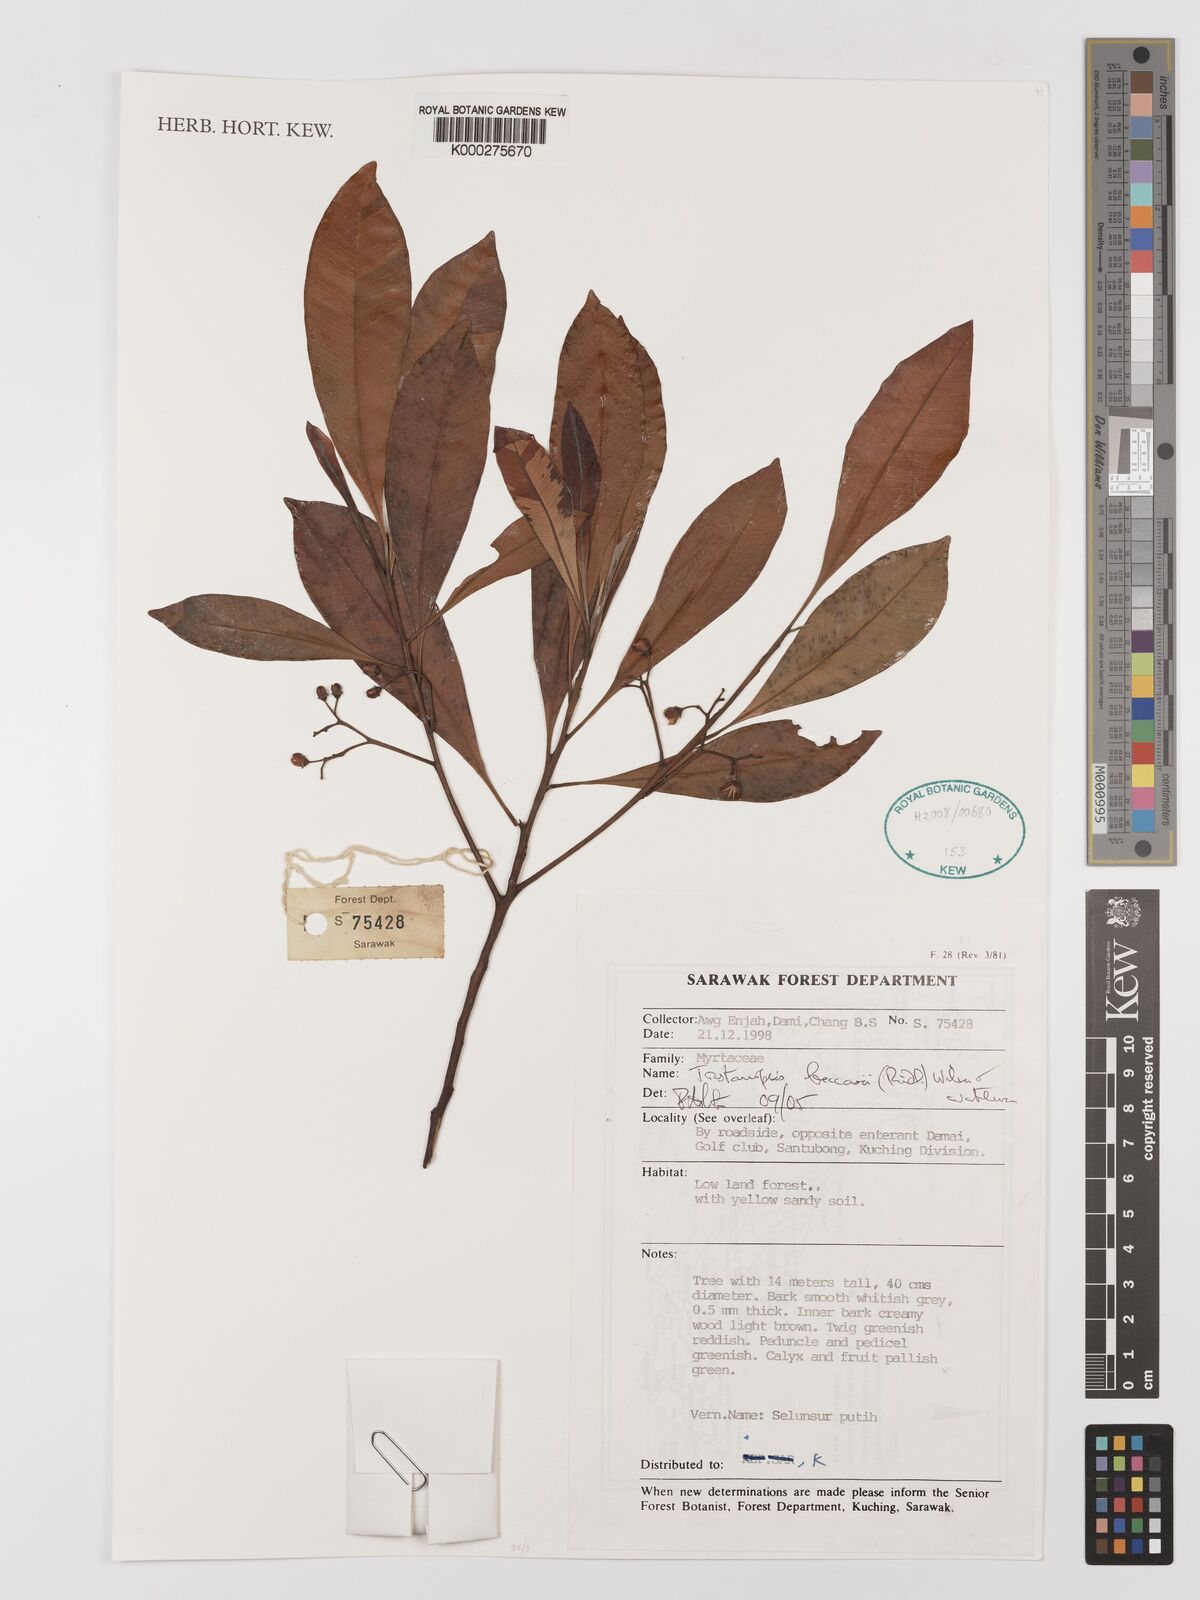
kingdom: Plantae
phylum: Tracheophyta
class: Magnoliopsida
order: Myrtales
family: Myrtaceae
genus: Tristaniopsis
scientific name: Tristaniopsis beccarii
